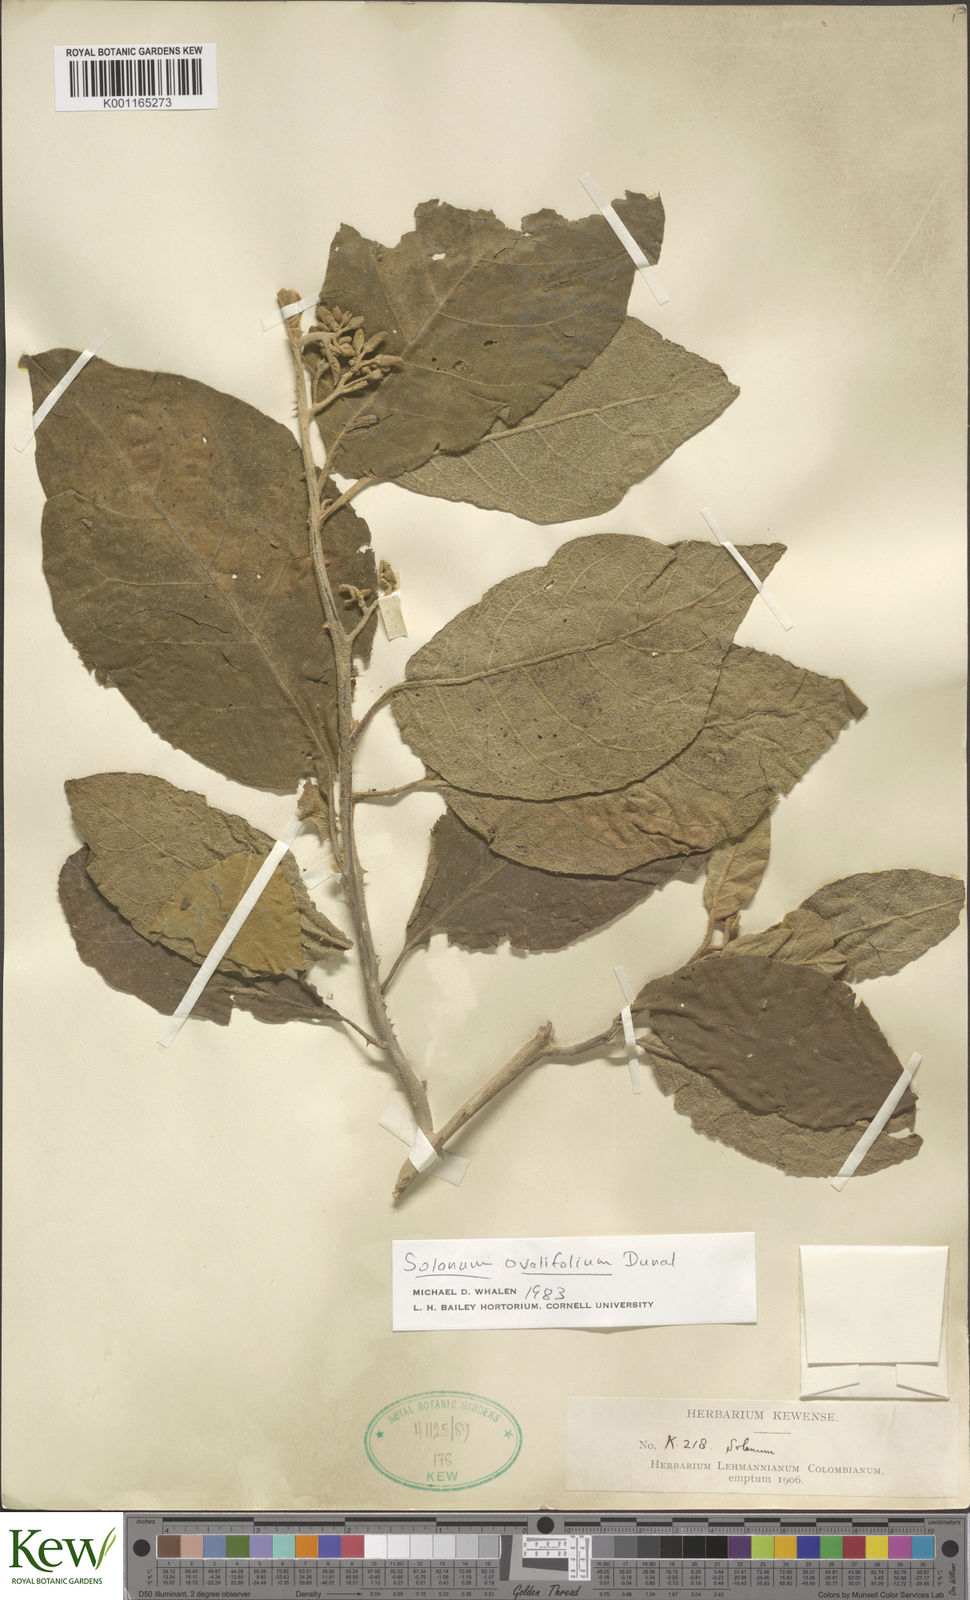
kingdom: Plantae
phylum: Tracheophyta
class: Magnoliopsida
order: Solanales
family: Solanaceae
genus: Solanum
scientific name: Solanum ovalifolium
